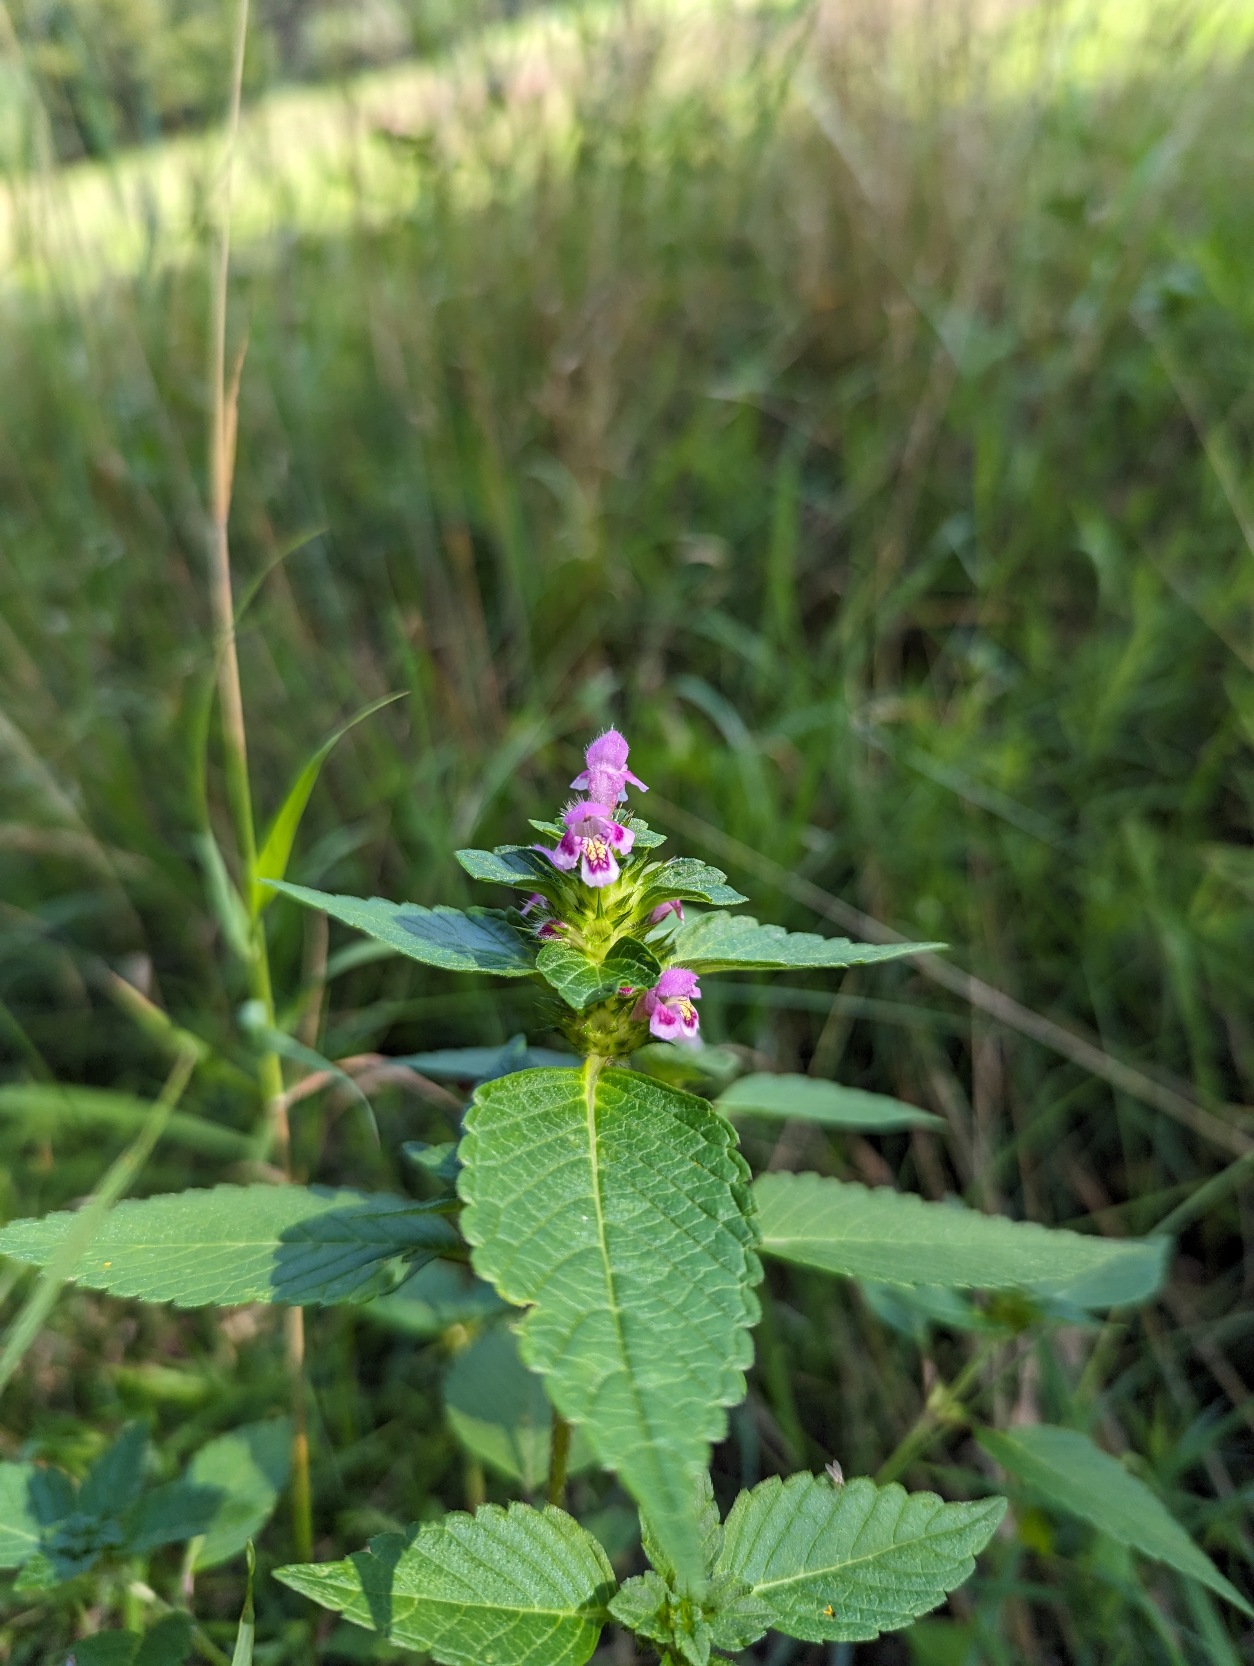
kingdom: Plantae
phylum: Tracheophyta
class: Magnoliopsida
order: Lamiales
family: Lamiaceae
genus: Galeopsis
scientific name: Galeopsis tetrahit
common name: Almindelig hanekro
